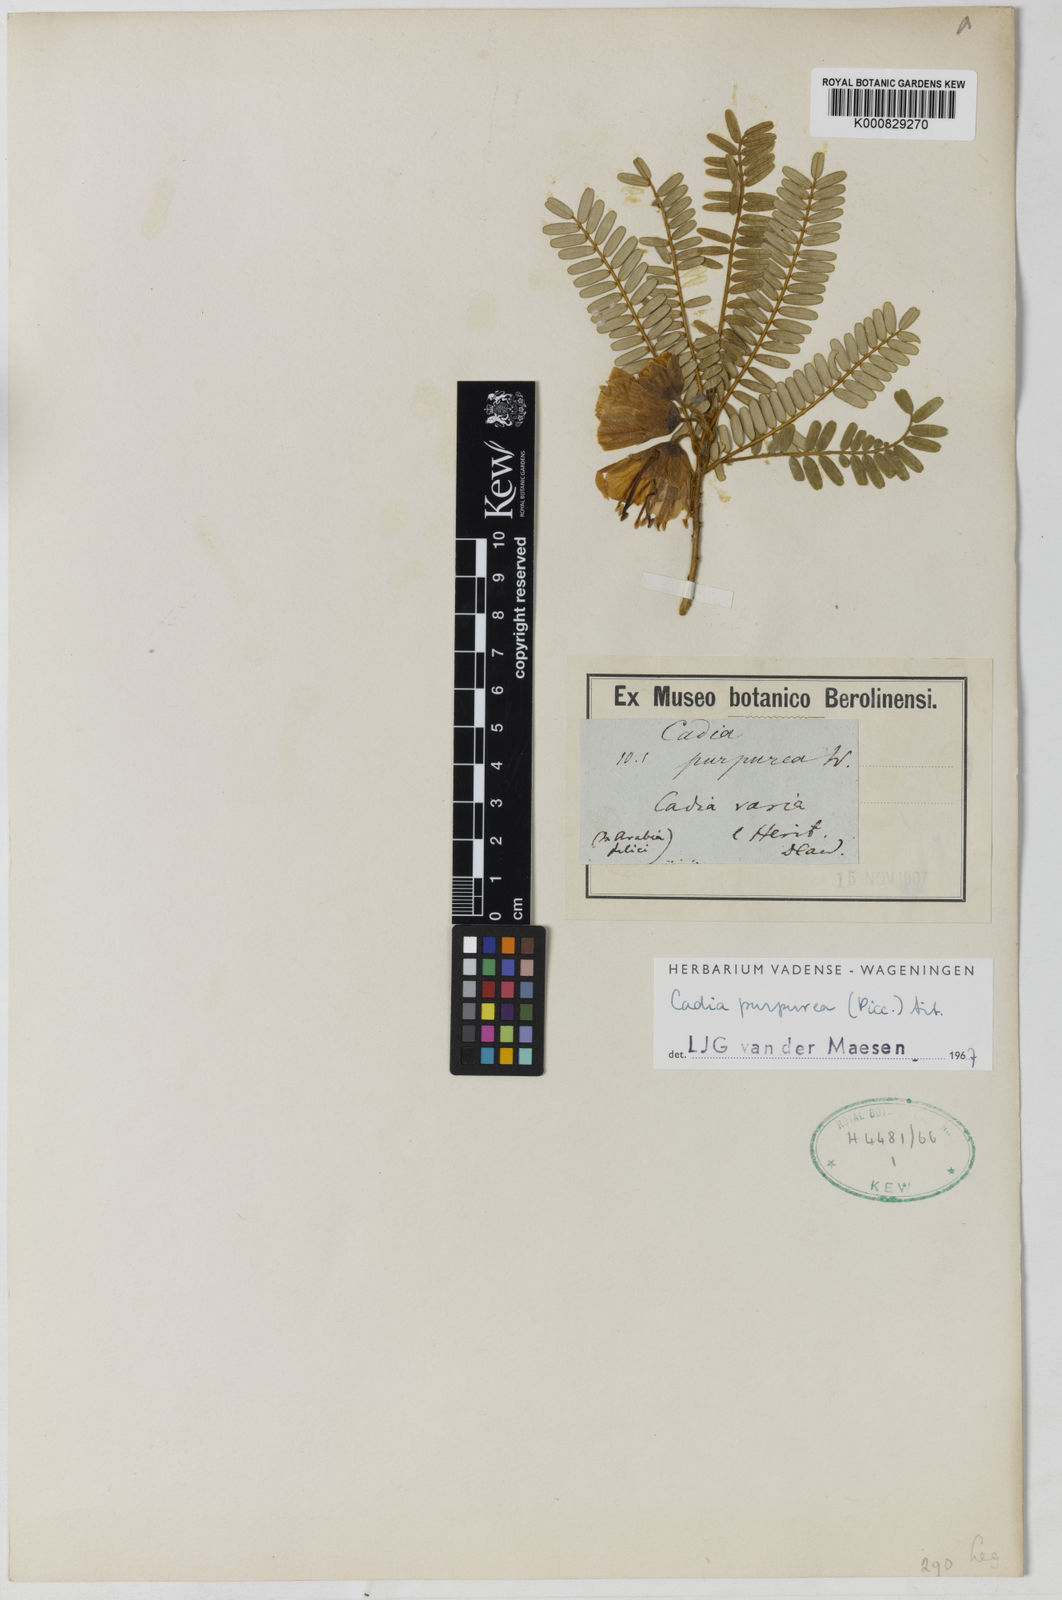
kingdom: Plantae
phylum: Tracheophyta
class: Magnoliopsida
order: Fabales
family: Fabaceae
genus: Cadia
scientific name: Cadia purpurea
